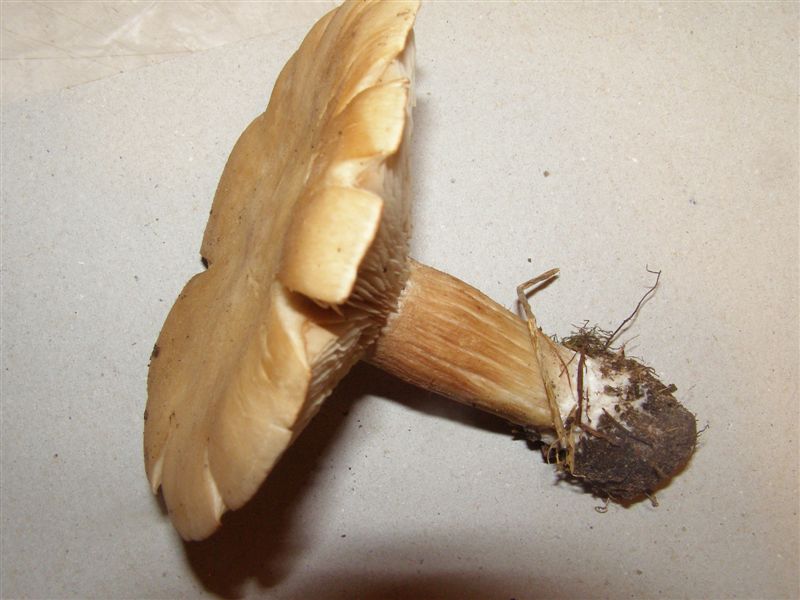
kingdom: Fungi
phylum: Basidiomycota
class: Agaricomycetes
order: Agaricales
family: Entolomataceae
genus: Clitopilus
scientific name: Clitopilus geminus
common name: kødfarvet troldhat
